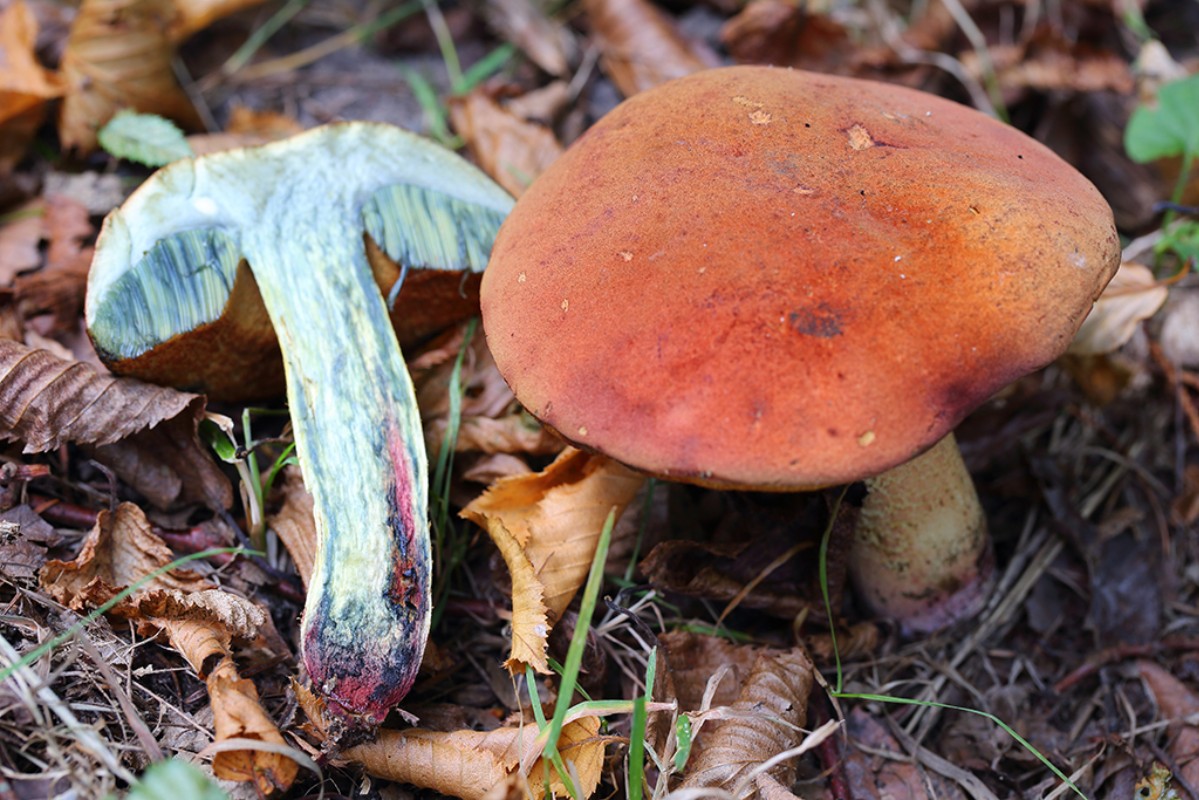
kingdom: Fungi
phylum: Basidiomycota
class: Agaricomycetes
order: Boletales
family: Boletaceae
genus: Suillellus
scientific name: Suillellus queletii
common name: glatstokket indigorørhat
